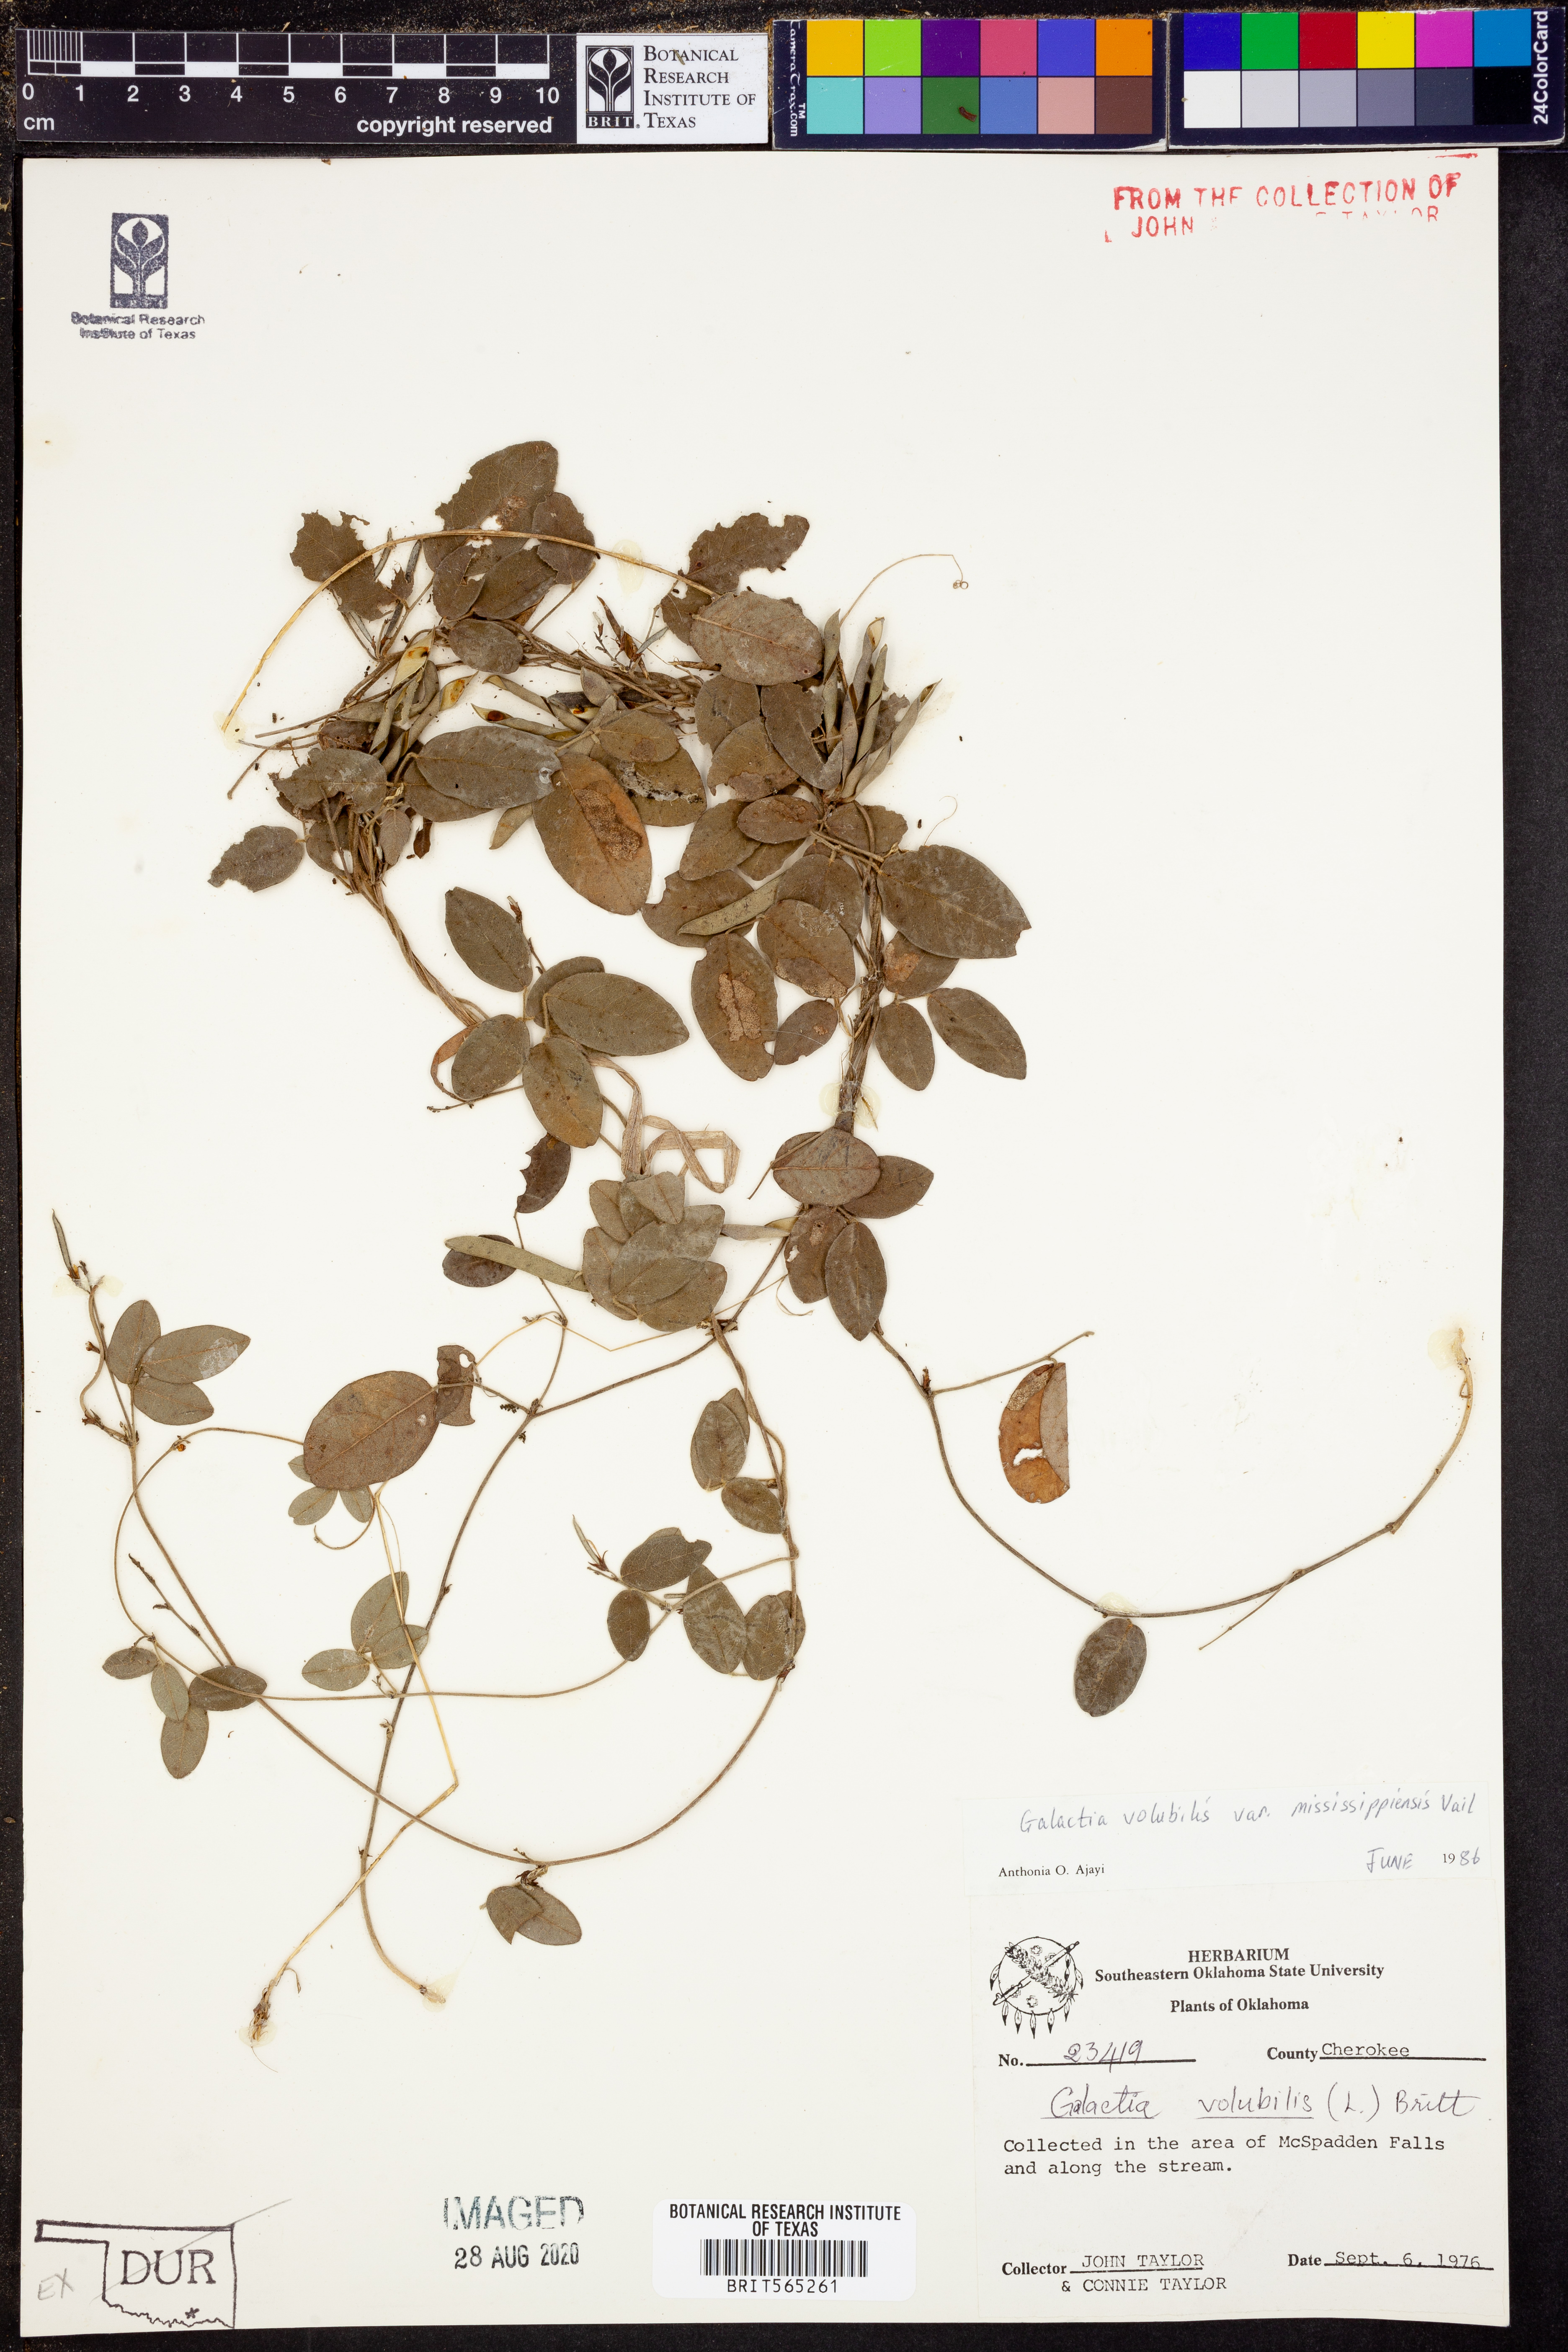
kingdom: Plantae
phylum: Tracheophyta
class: Magnoliopsida
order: Fabales
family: Fabaceae
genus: Galactia
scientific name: Galactia volubilis
